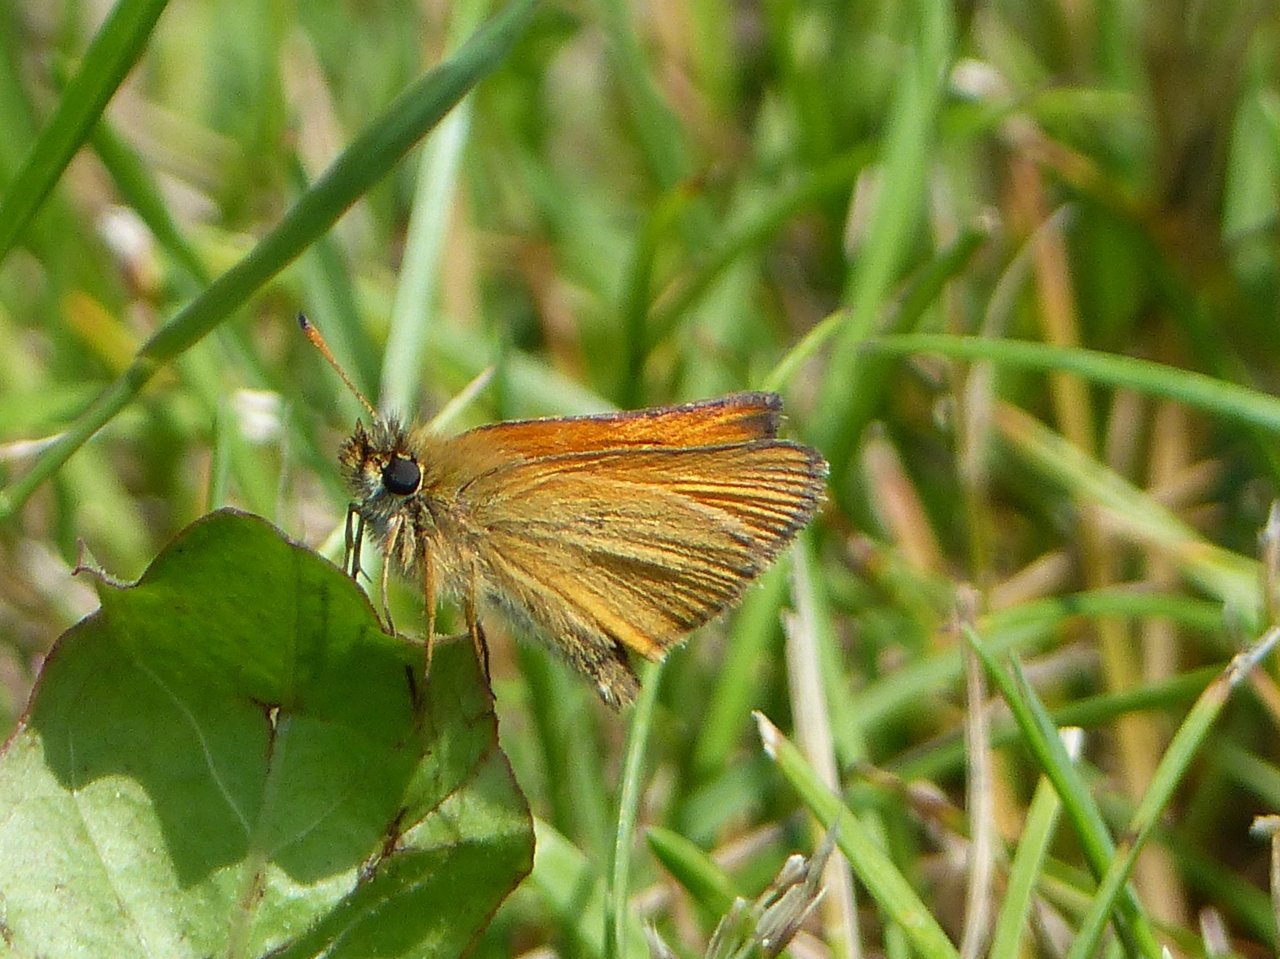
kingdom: Animalia
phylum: Arthropoda
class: Insecta
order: Lepidoptera
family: Hesperiidae
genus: Thymelicus
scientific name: Thymelicus lineola
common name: European Skipper
